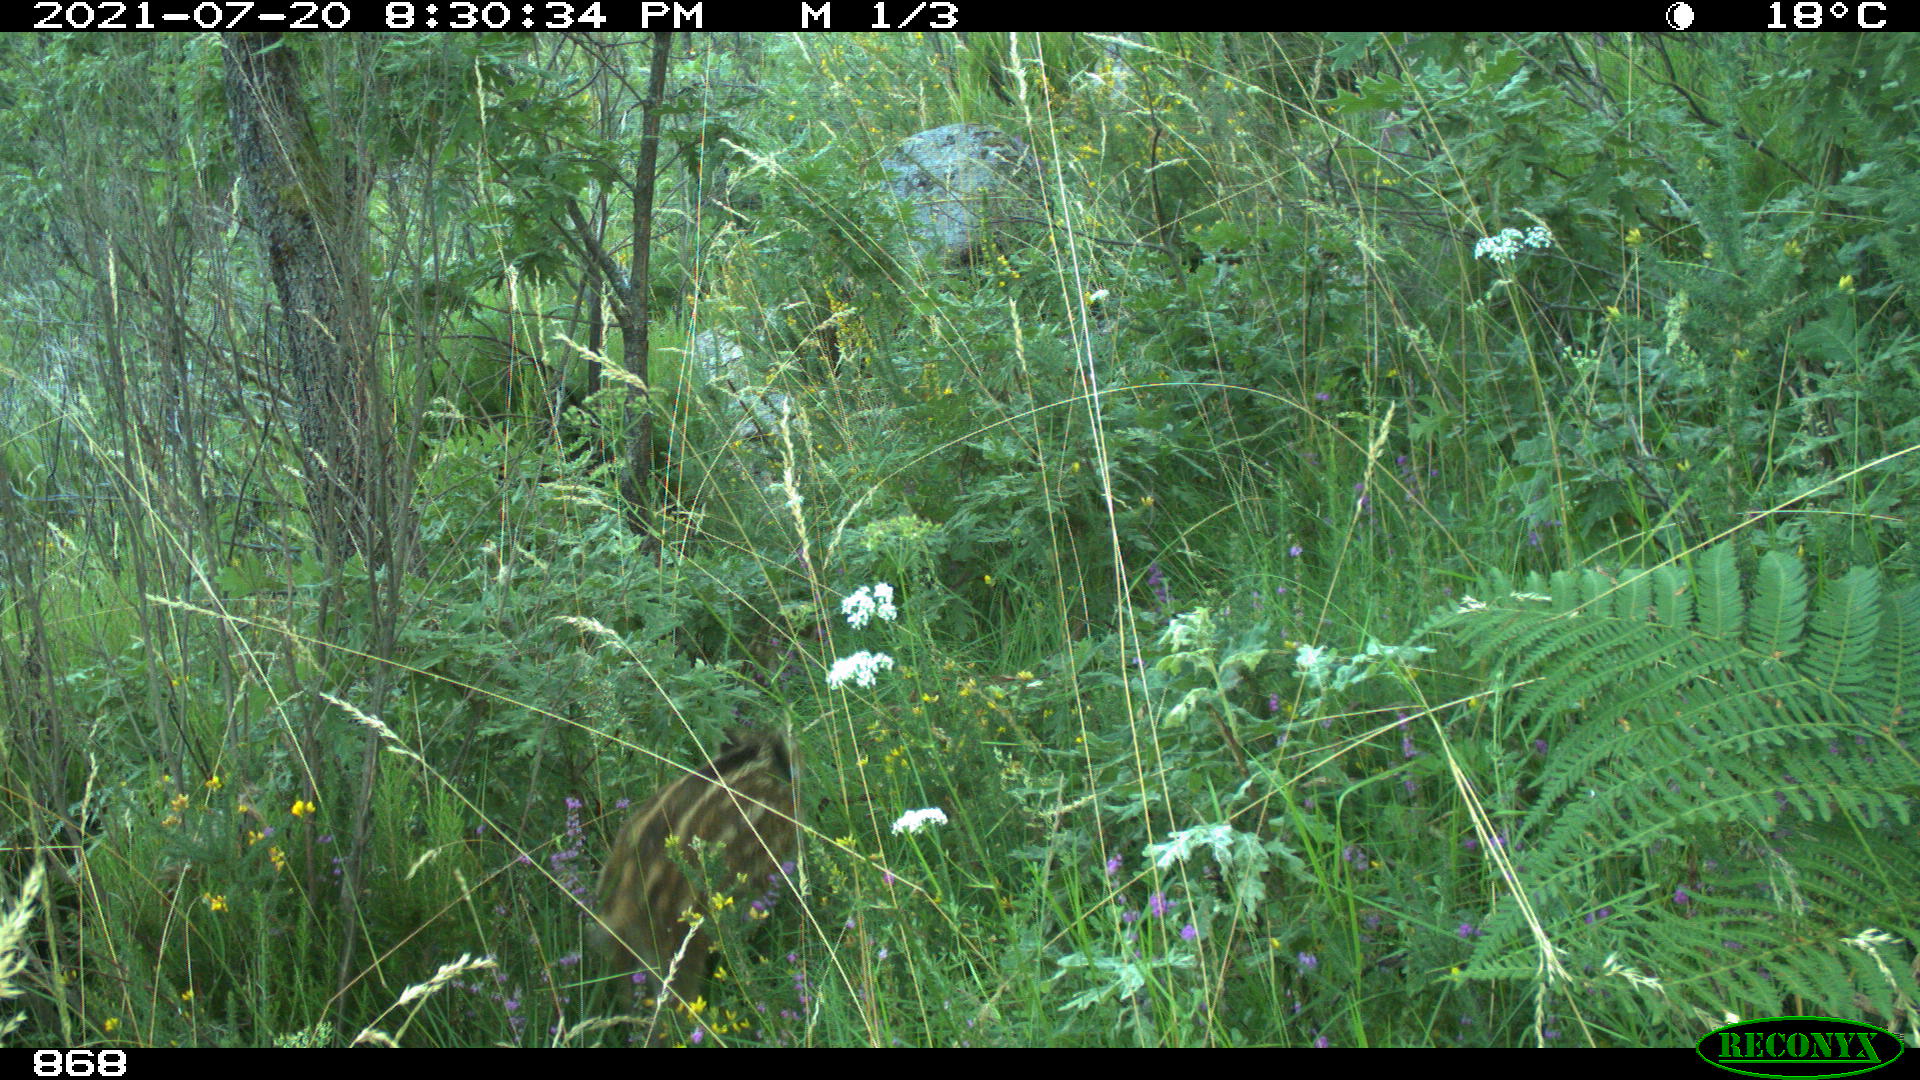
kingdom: Animalia
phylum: Chordata
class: Mammalia
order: Artiodactyla
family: Suidae
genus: Sus
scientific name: Sus scrofa
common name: Wild boar
